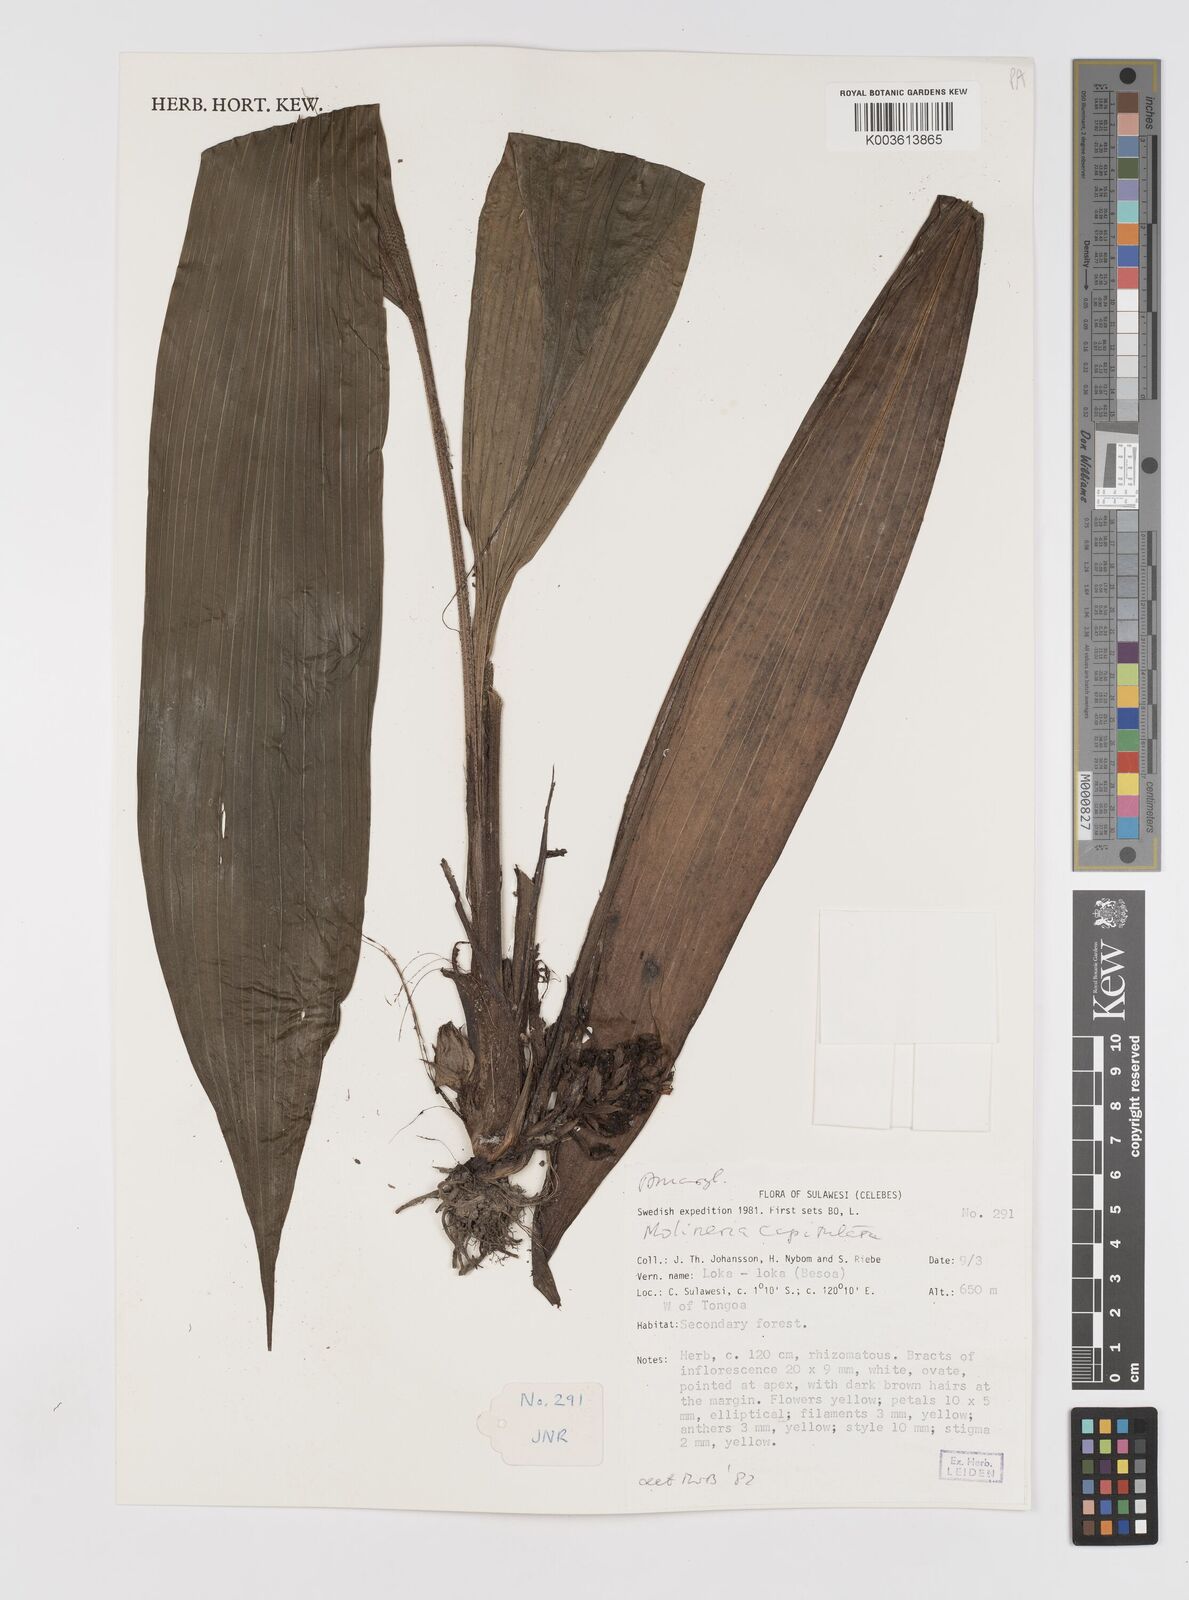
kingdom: Plantae
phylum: Tracheophyta
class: Liliopsida
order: Asparagales
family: Hypoxidaceae
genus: Curculigo
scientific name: Curculigo capitulata
